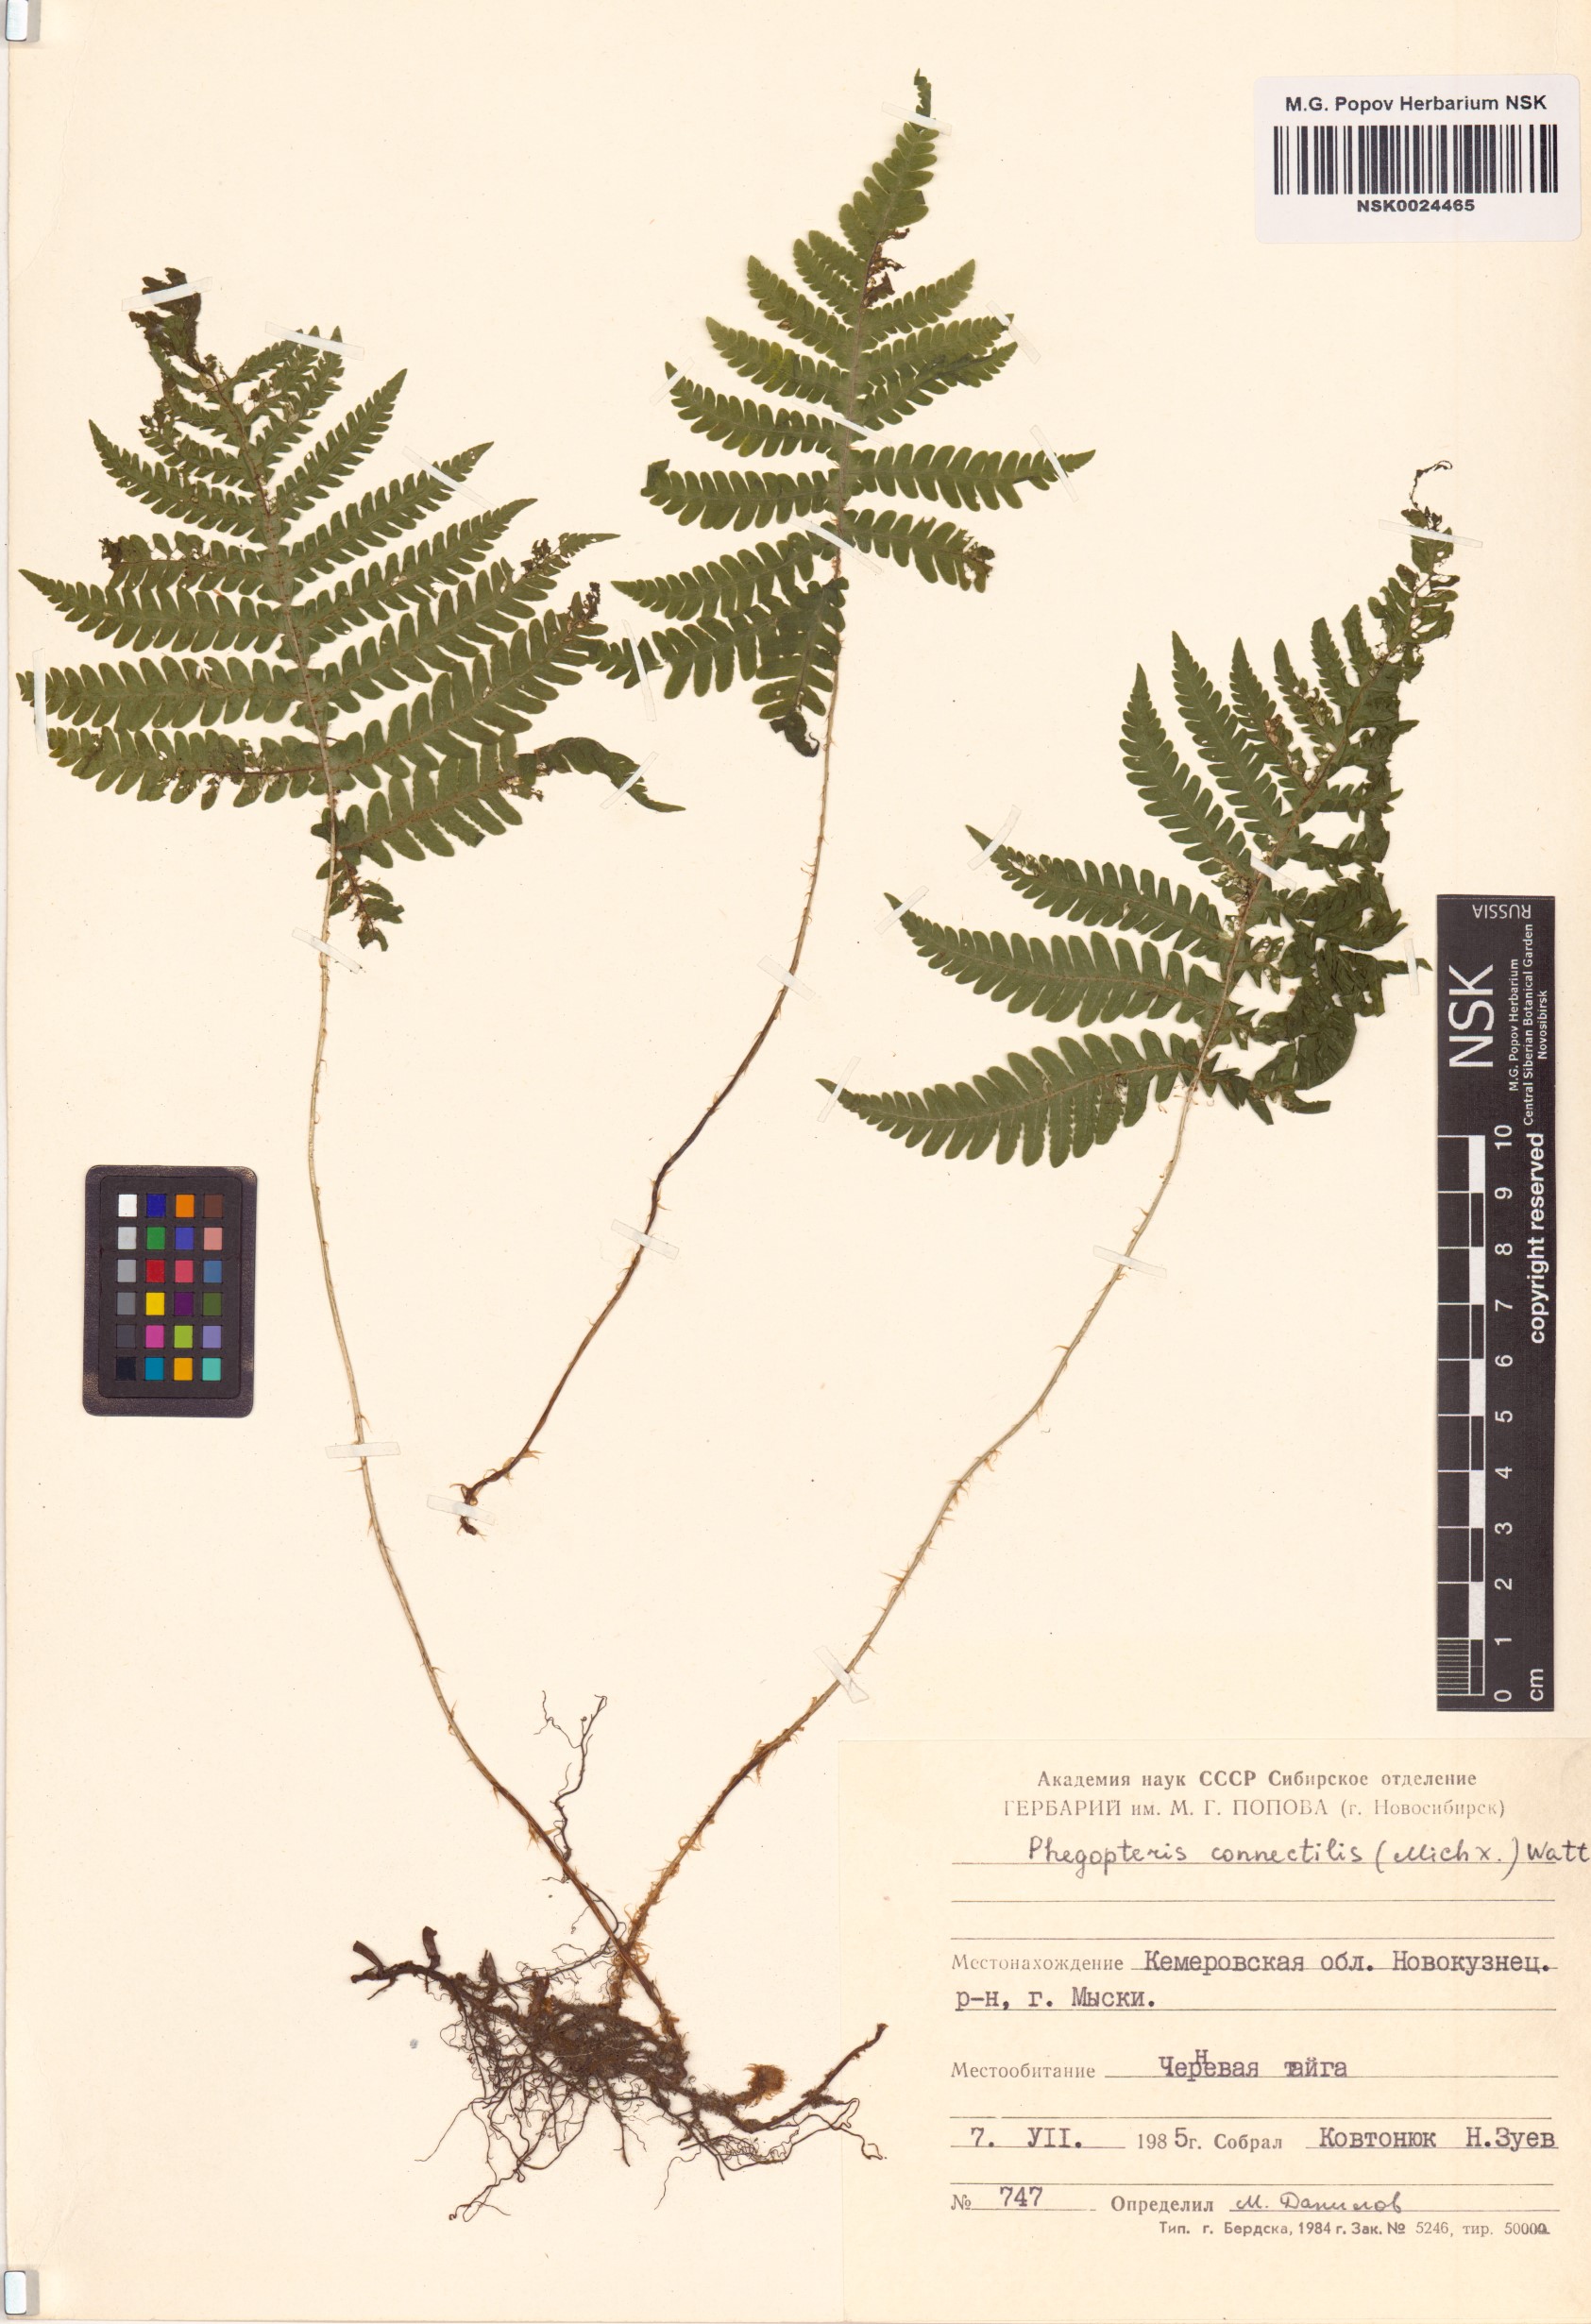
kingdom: Plantae
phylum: Tracheophyta
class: Polypodiopsida
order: Polypodiales
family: Thelypteridaceae
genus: Phegopteris
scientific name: Phegopteris connectilis
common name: Beech fern
